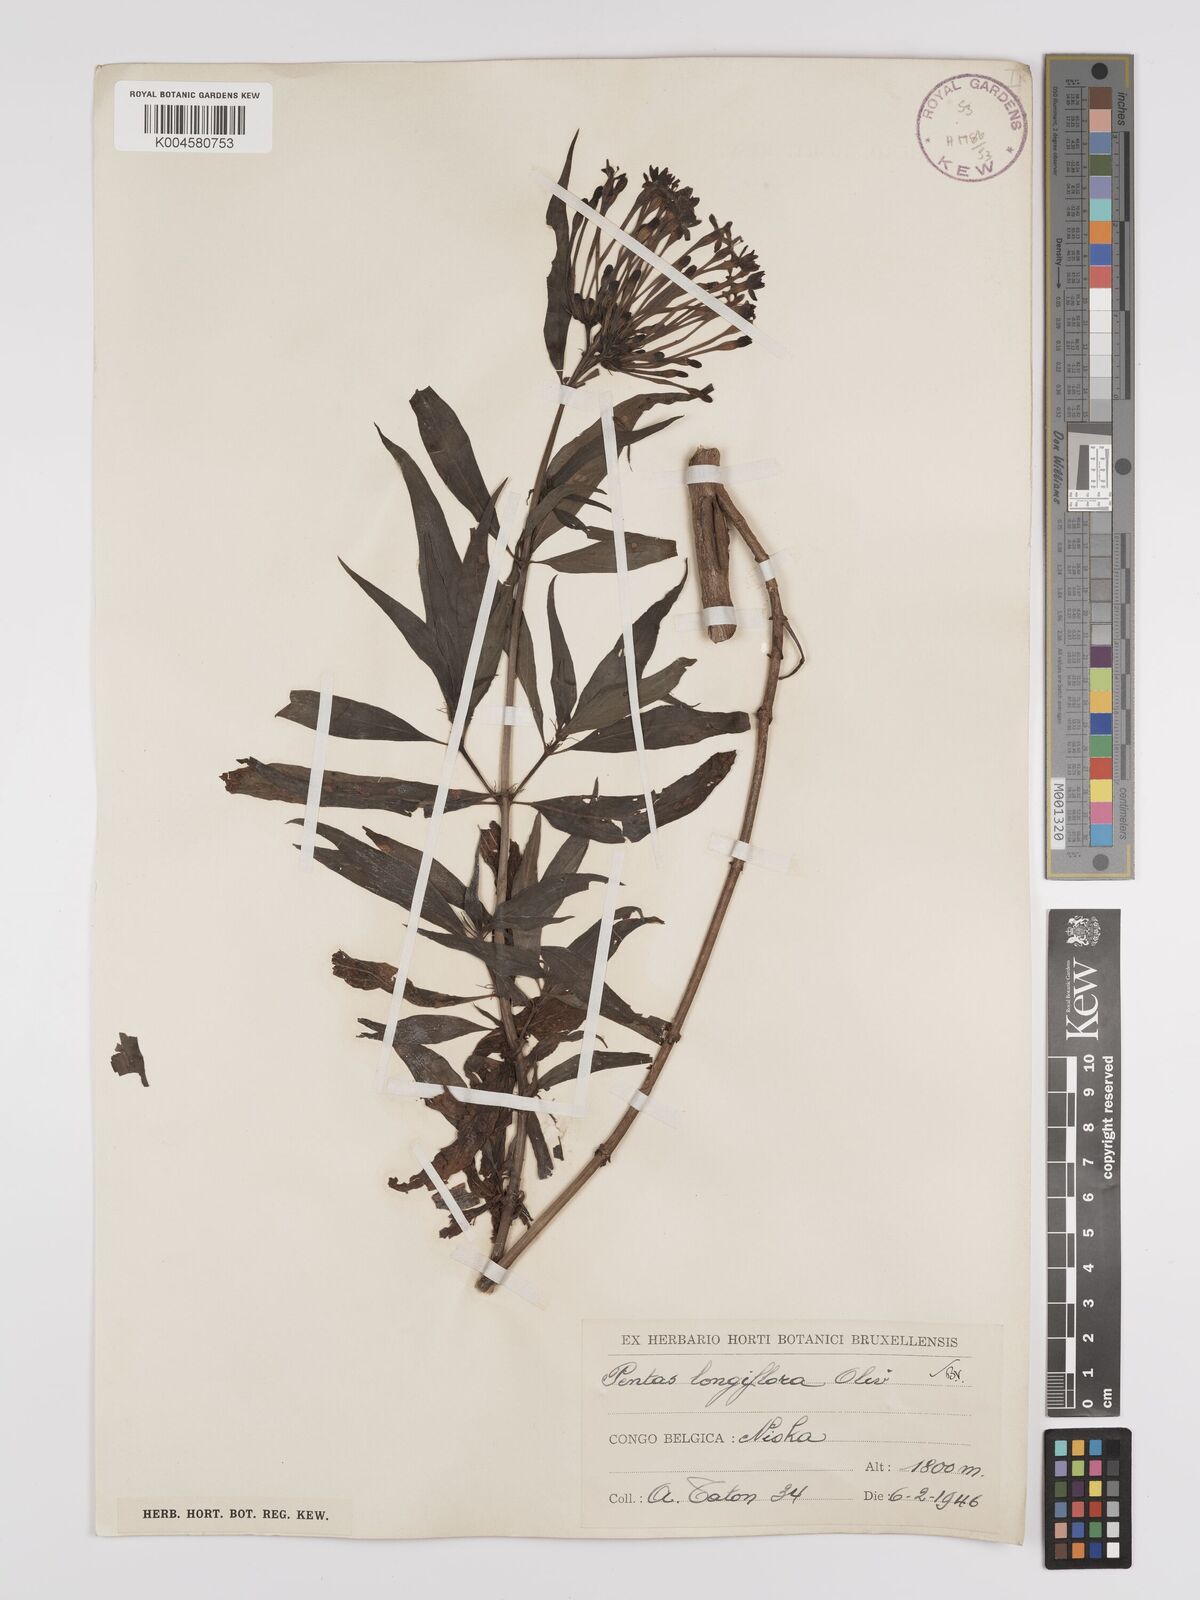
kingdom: Plantae
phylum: Tracheophyta
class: Magnoliopsida
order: Gentianales
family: Rubiaceae
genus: Dolichopentas
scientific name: Dolichopentas longiflora
